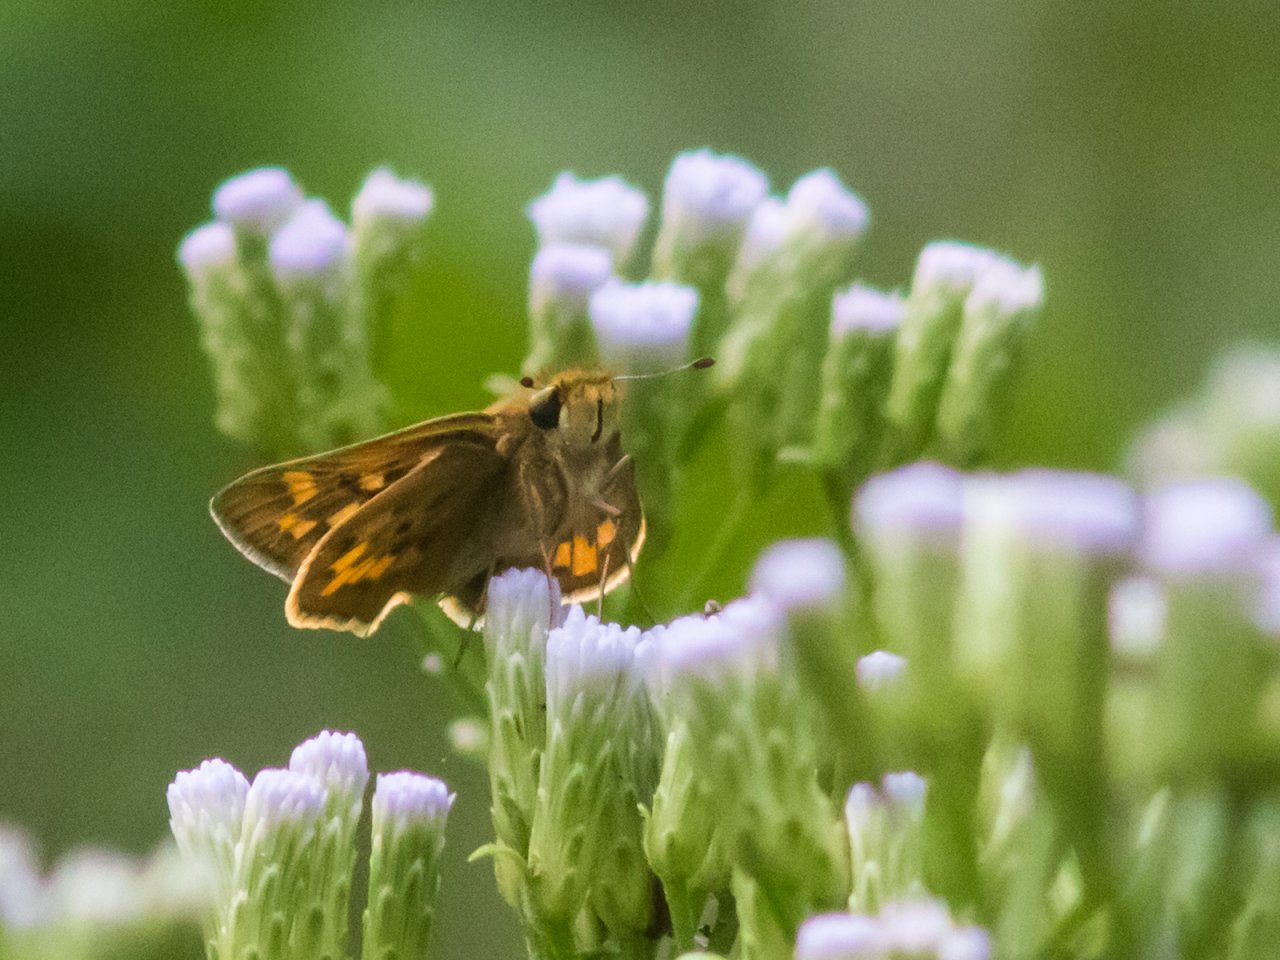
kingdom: Animalia
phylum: Arthropoda
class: Insecta
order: Lepidoptera
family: Hesperiidae
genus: Hylephila
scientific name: Hylephila phyleus
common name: Fiery Skipper
